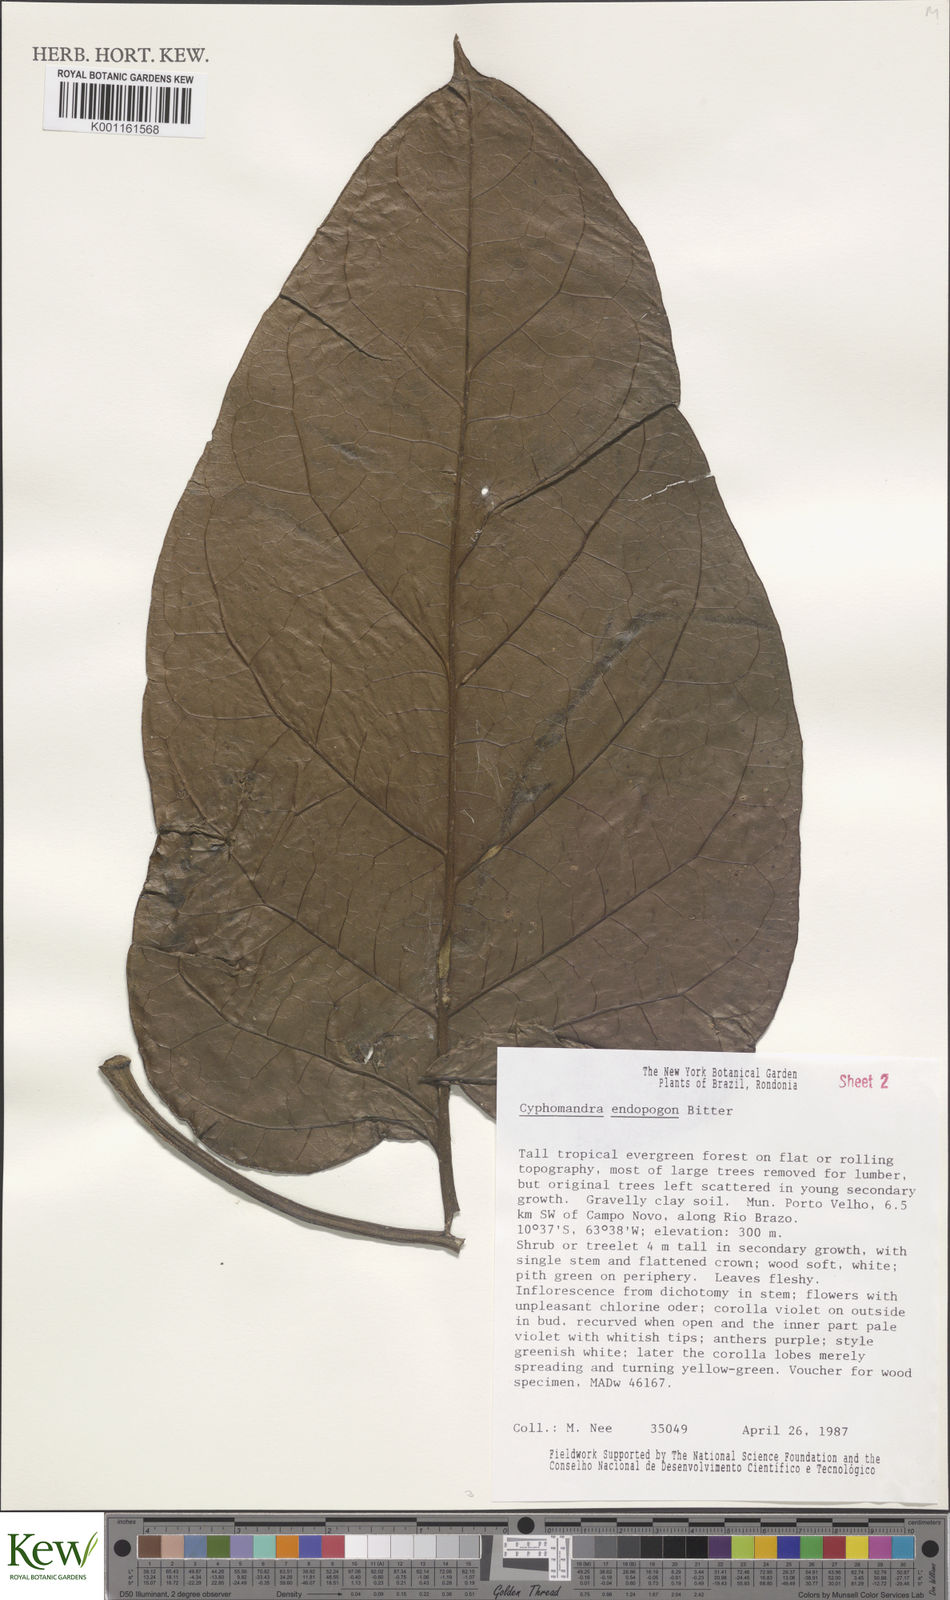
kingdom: Plantae
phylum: Tracheophyta
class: Magnoliopsida
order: Solanales
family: Solanaceae
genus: Solanum
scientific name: Solanum endopogon
